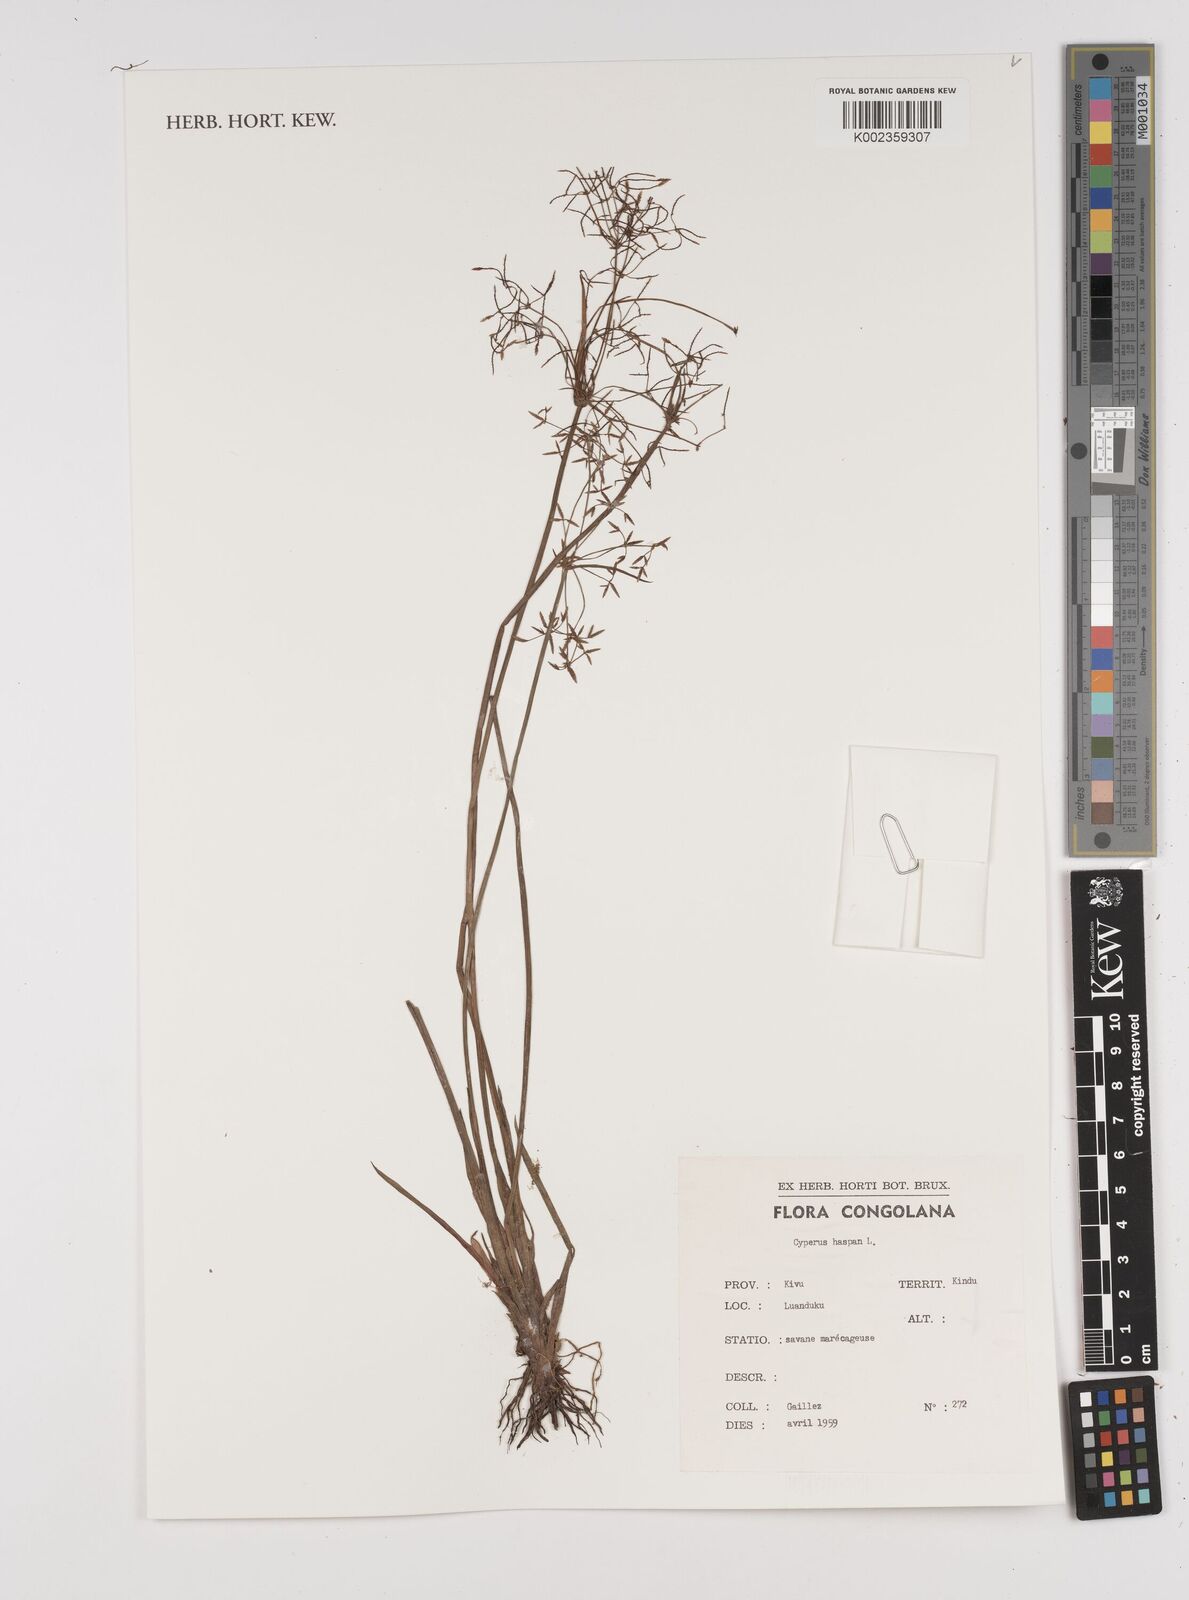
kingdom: Plantae
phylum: Tracheophyta
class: Liliopsida
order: Poales
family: Cyperaceae
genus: Cyperus
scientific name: Cyperus haspan
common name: Haspan flatsedge
